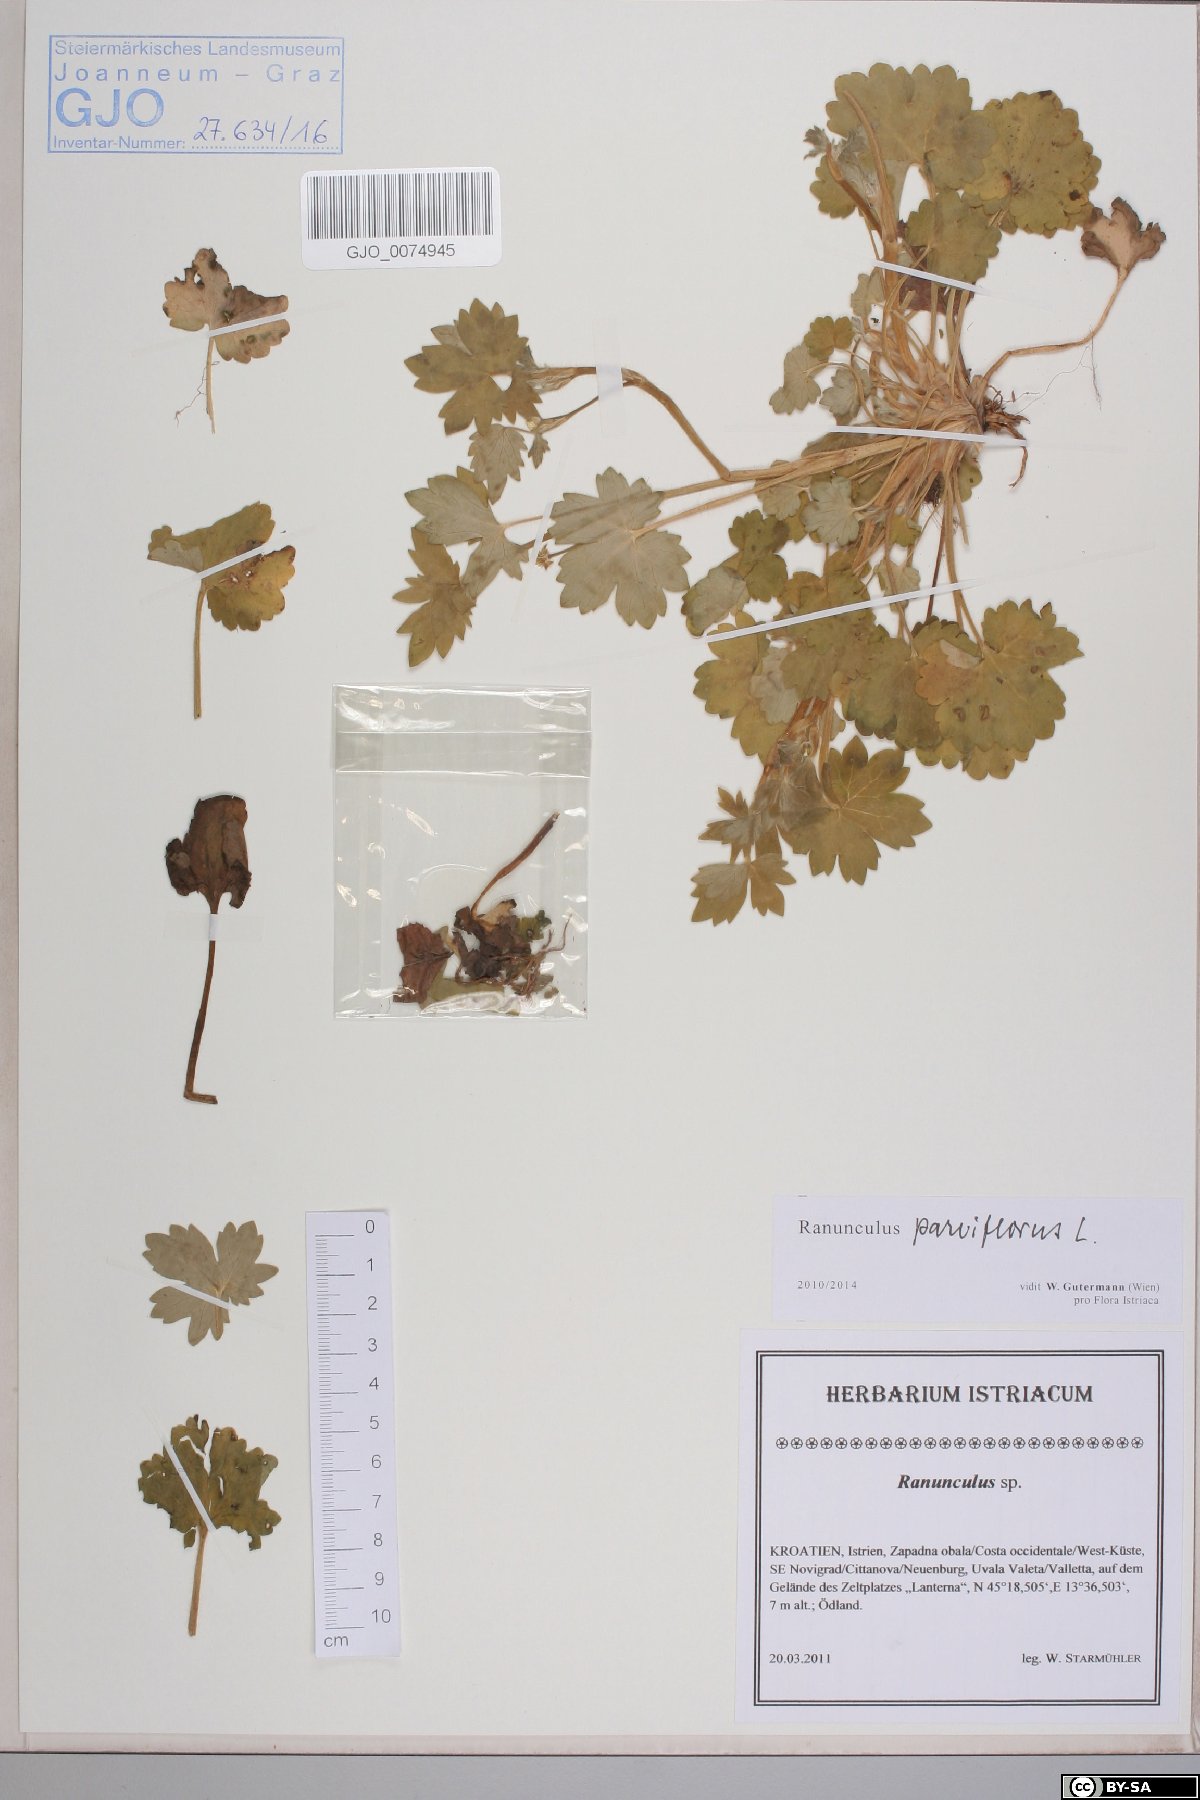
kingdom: Plantae
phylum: Tracheophyta
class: Magnoliopsida
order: Ranunculales
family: Ranunculaceae
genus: Ranunculus
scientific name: Ranunculus parviflorus
